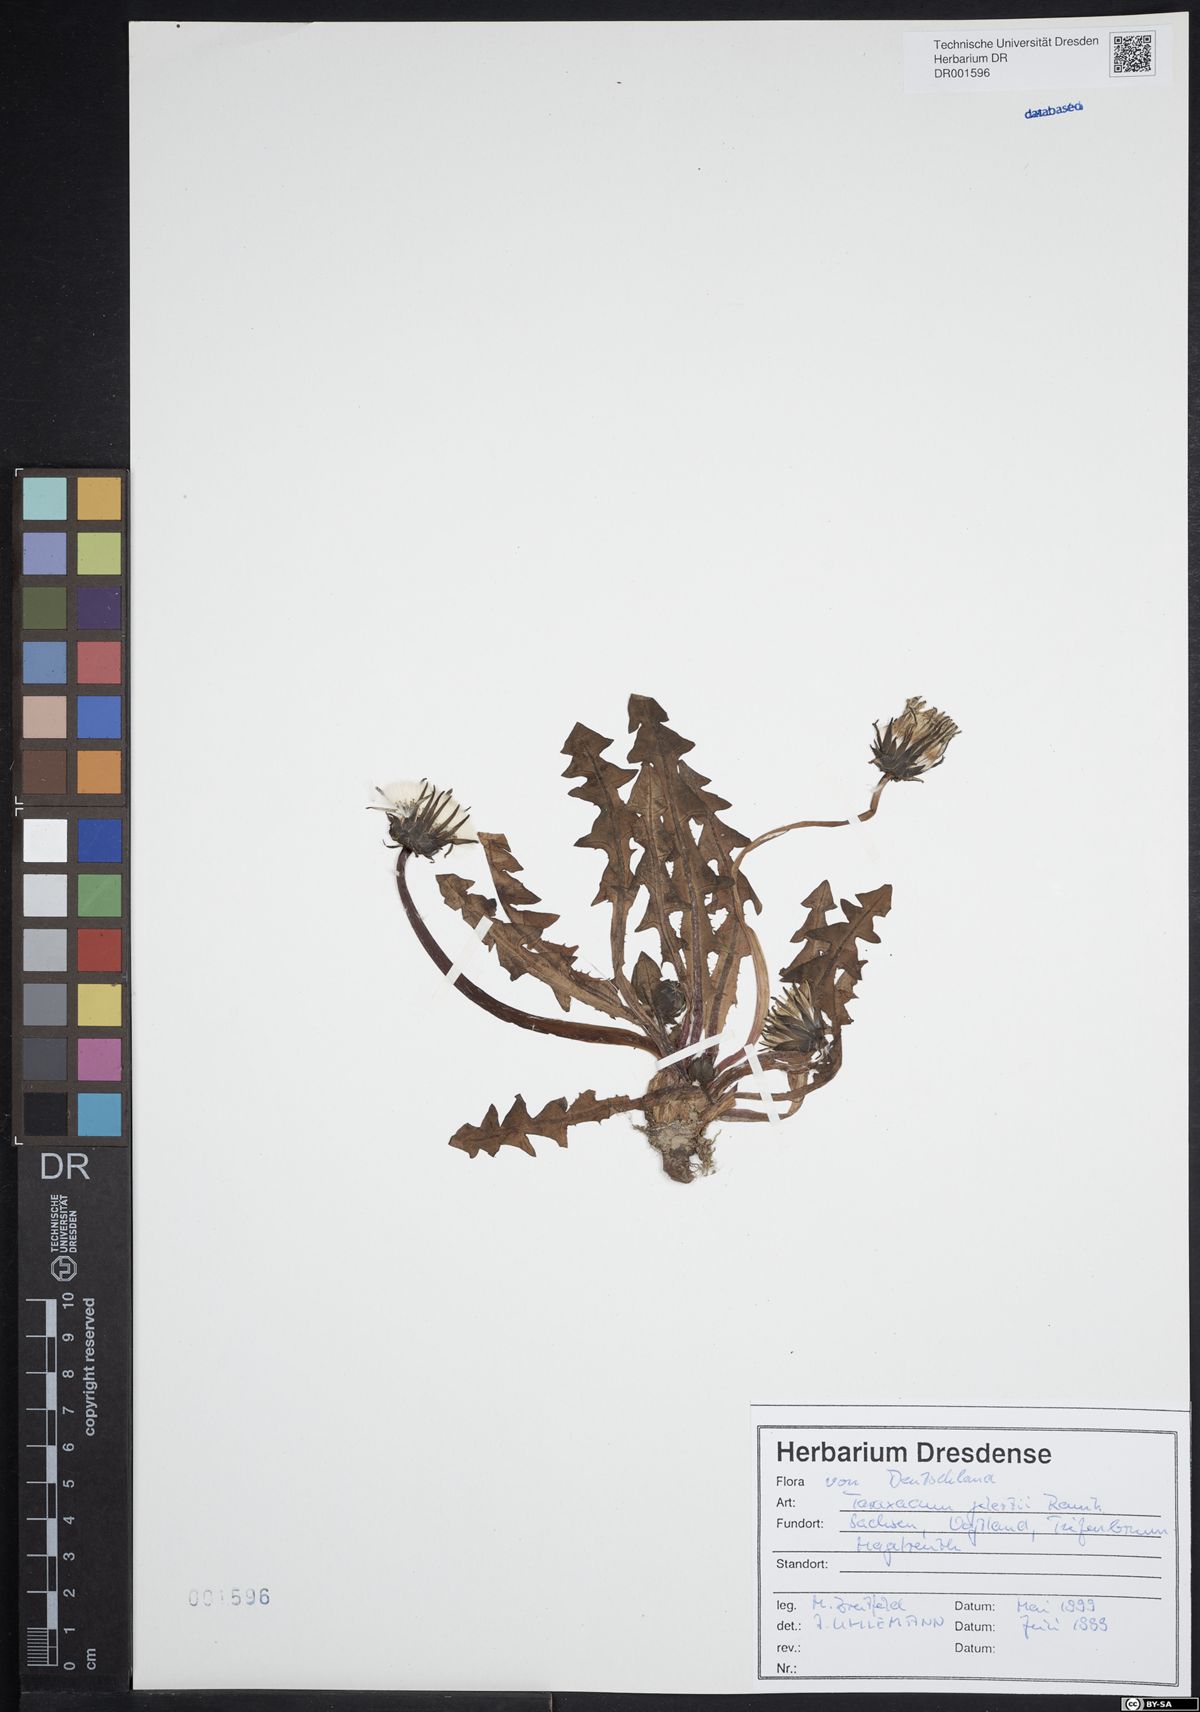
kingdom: Plantae
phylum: Tracheophyta
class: Magnoliopsida
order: Asterales
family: Asteraceae
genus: Taraxacum
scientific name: Taraxacum gelertii
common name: Gelert's dandelion
